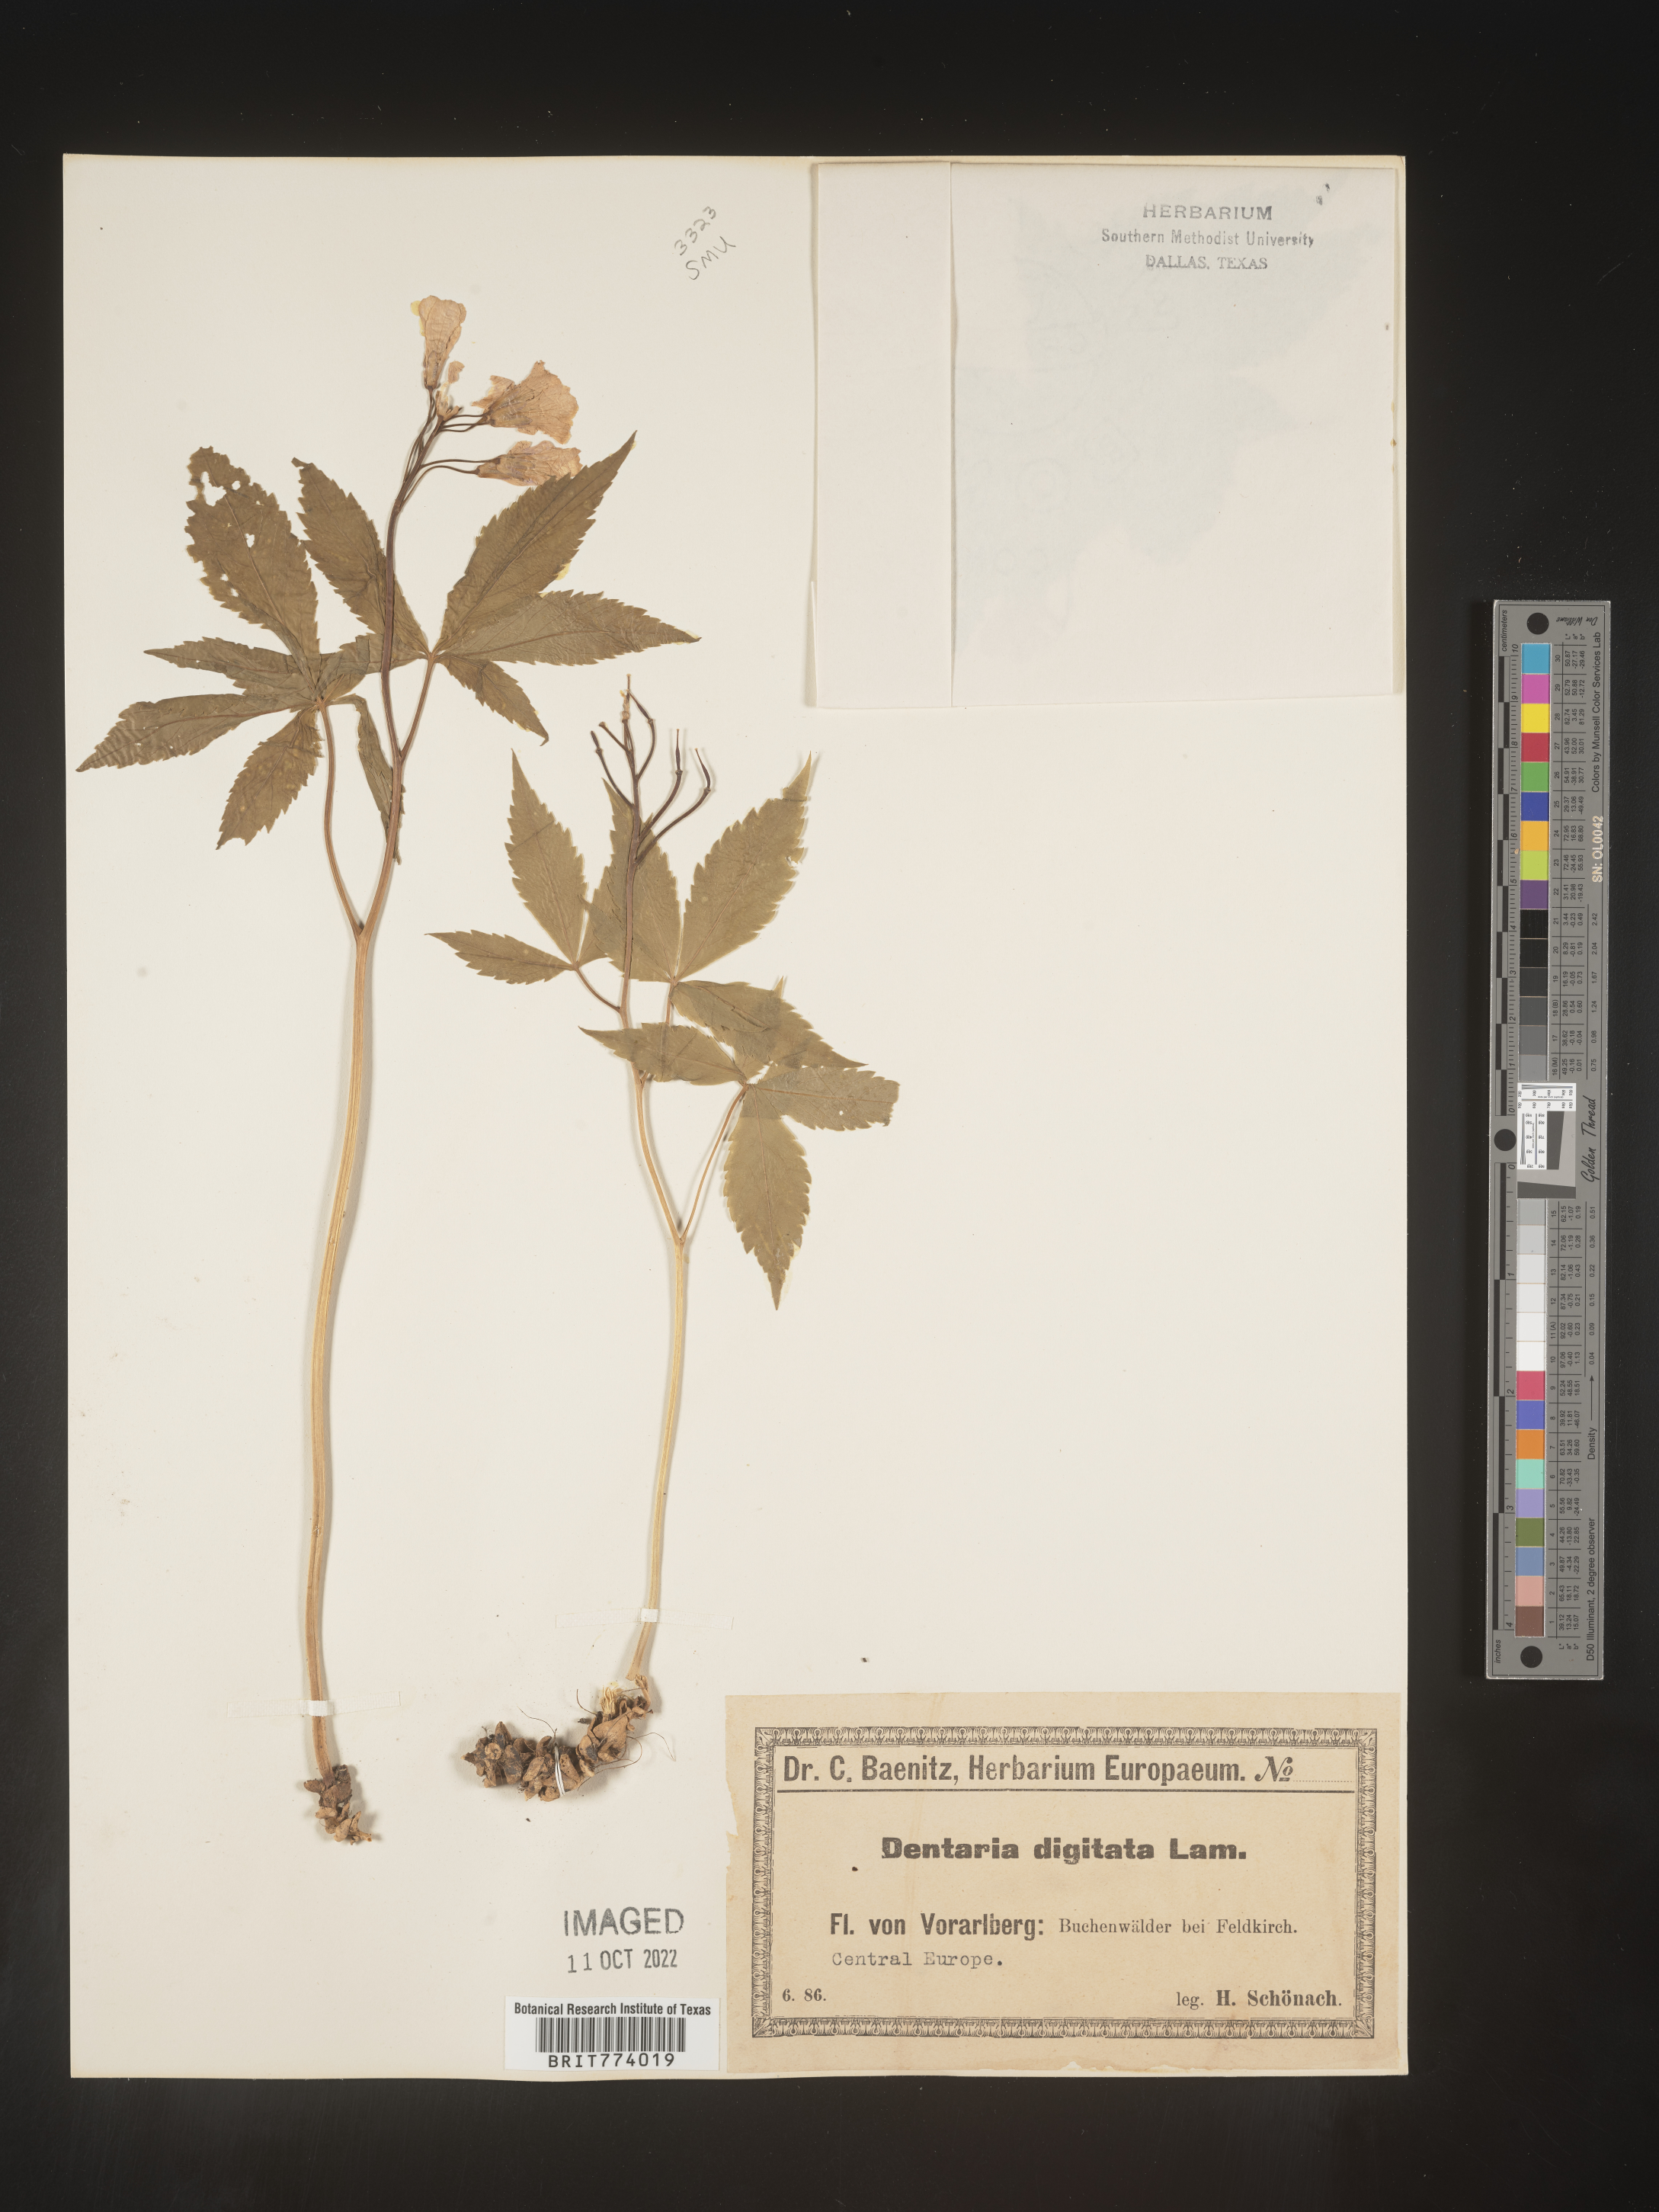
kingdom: Plantae
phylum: Tracheophyta
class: Magnoliopsida
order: Brassicales
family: Brassicaceae
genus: Cardamine
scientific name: Cardamine
